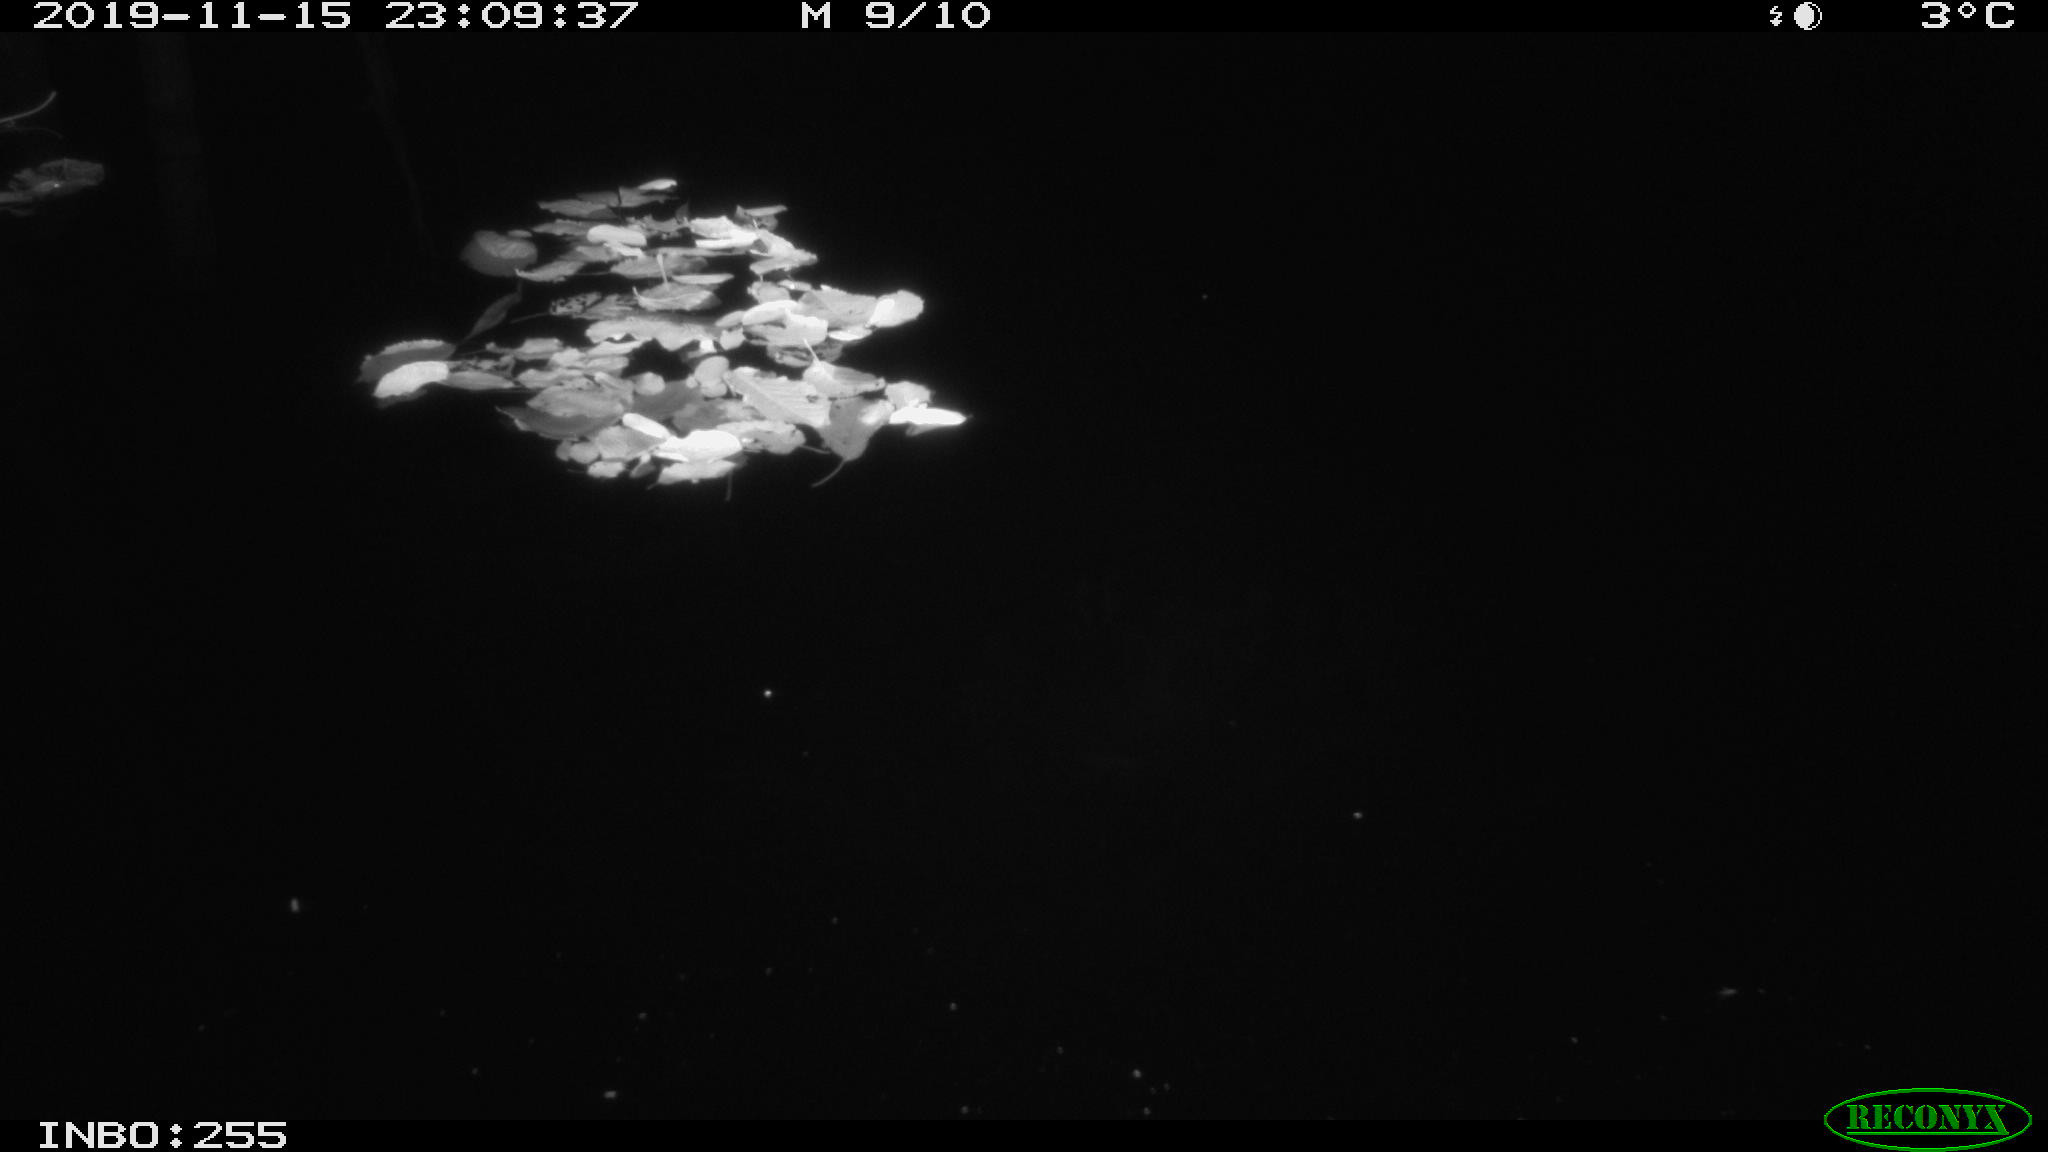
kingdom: Animalia
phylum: Chordata
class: Mammalia
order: Rodentia
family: Muridae
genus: Rattus
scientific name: Rattus norvegicus
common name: Brown rat
